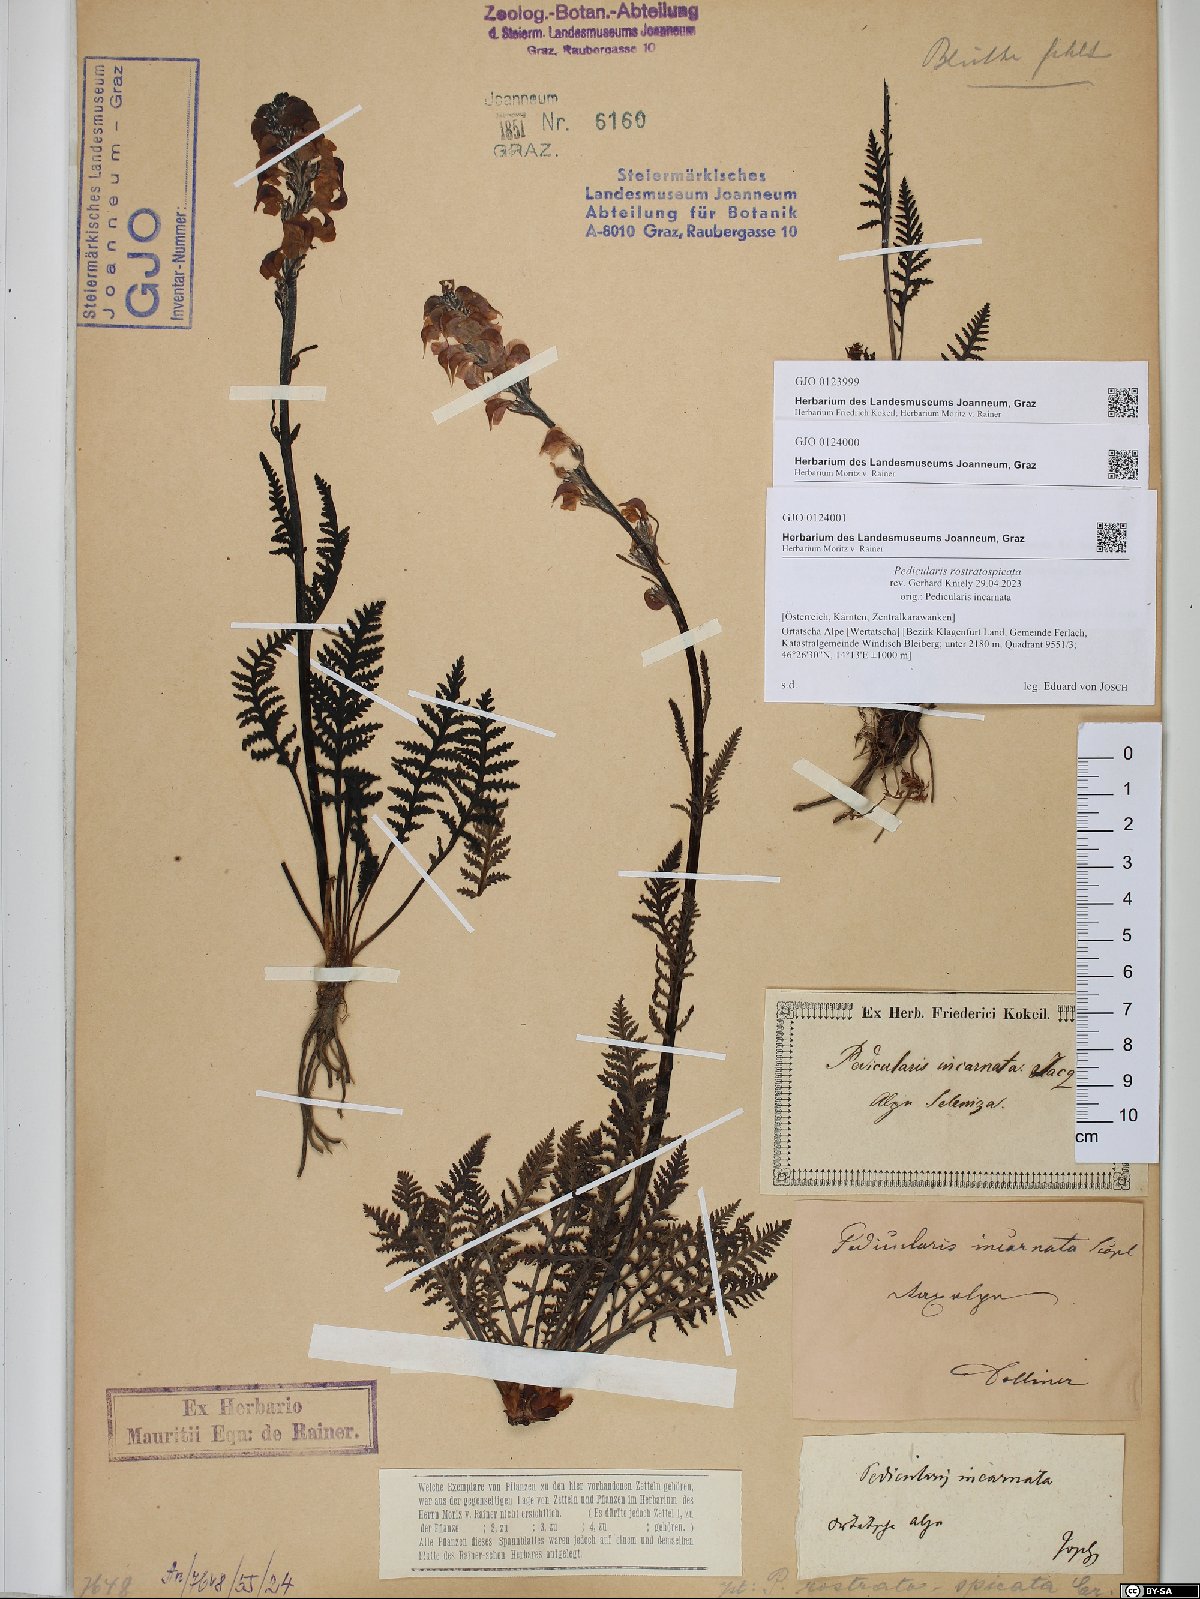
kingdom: Plantae
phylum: Tracheophyta
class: Magnoliopsida
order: Lamiales
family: Orobanchaceae
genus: Pedicularis
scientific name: Pedicularis rostratospicata
